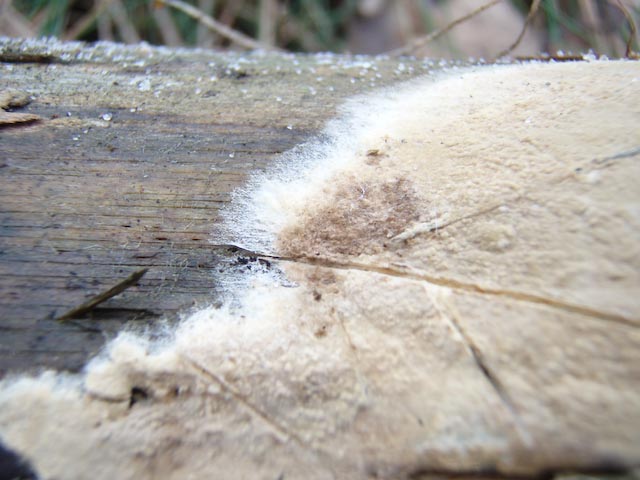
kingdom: Fungi
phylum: Basidiomycota
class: Agaricomycetes
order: Boletales
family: Coniophoraceae
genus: Coniophora
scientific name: Coniophora arida
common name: tynd tømmersvamp
